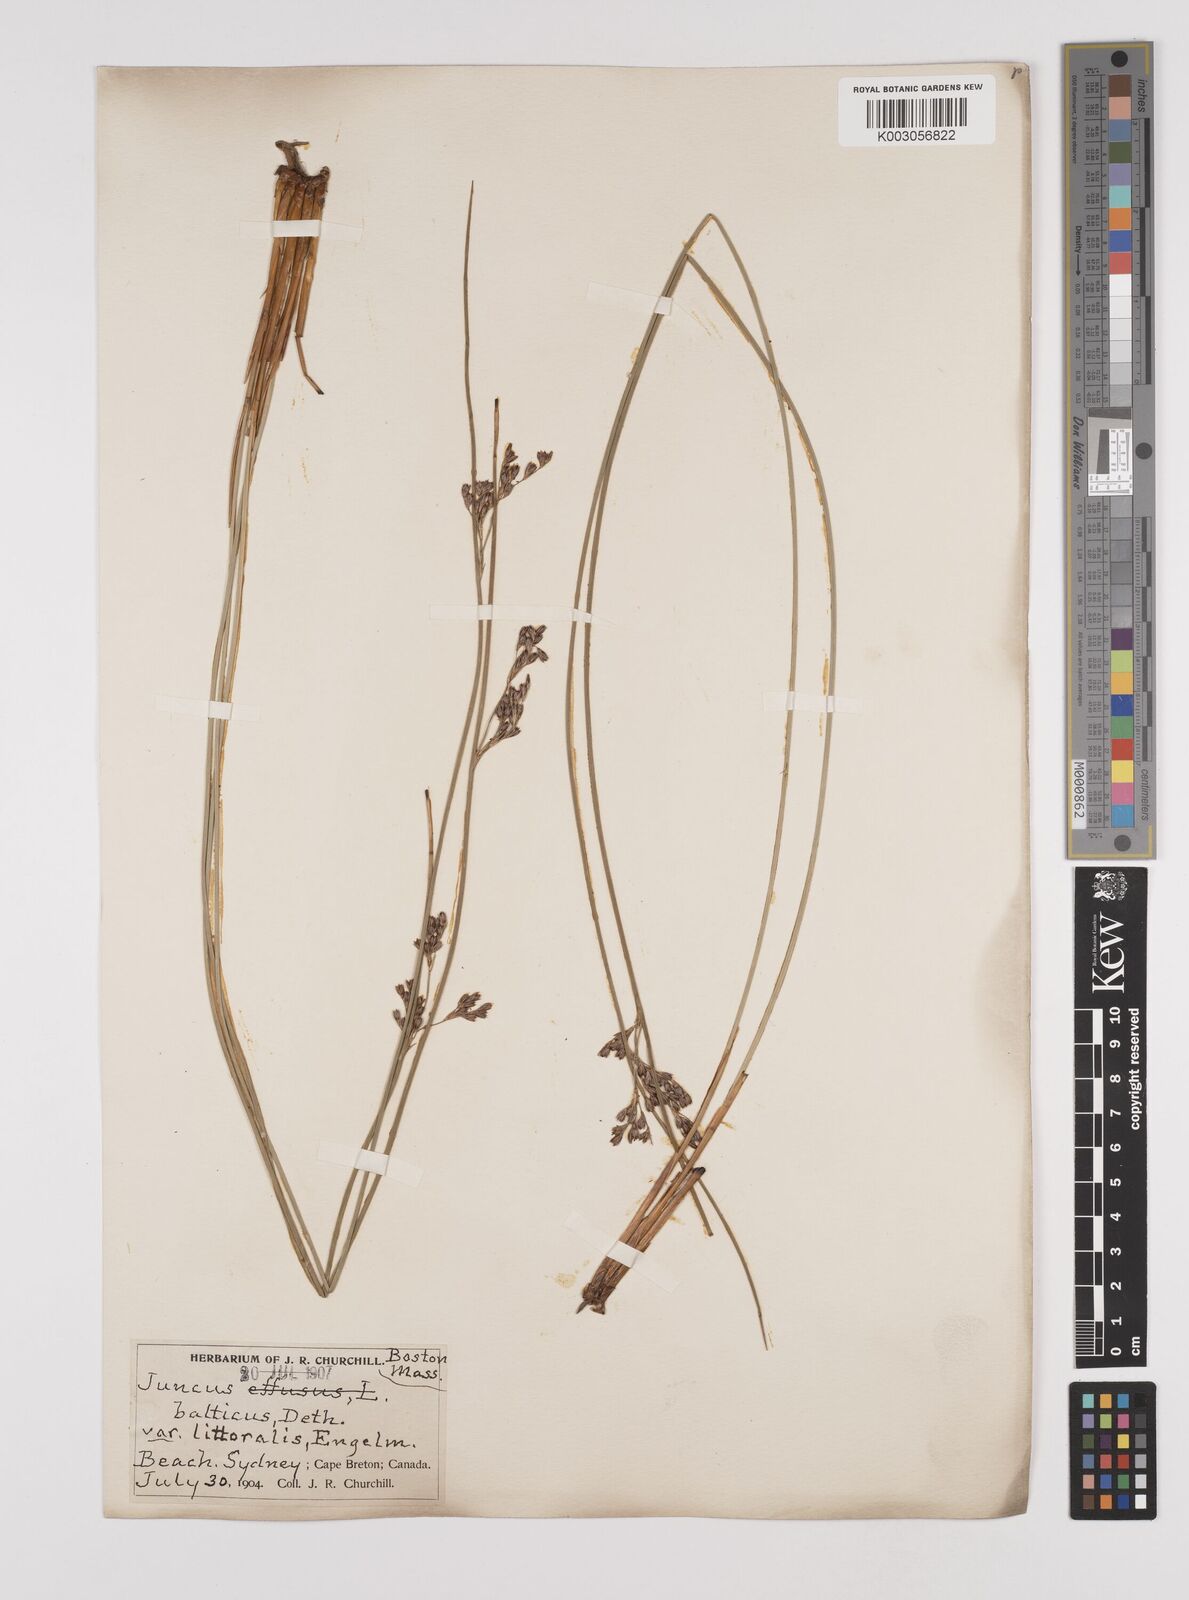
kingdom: Plantae
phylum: Tracheophyta
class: Liliopsida
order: Poales
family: Juncaceae
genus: Juncus
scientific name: Juncus balticus
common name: Baltic rush
